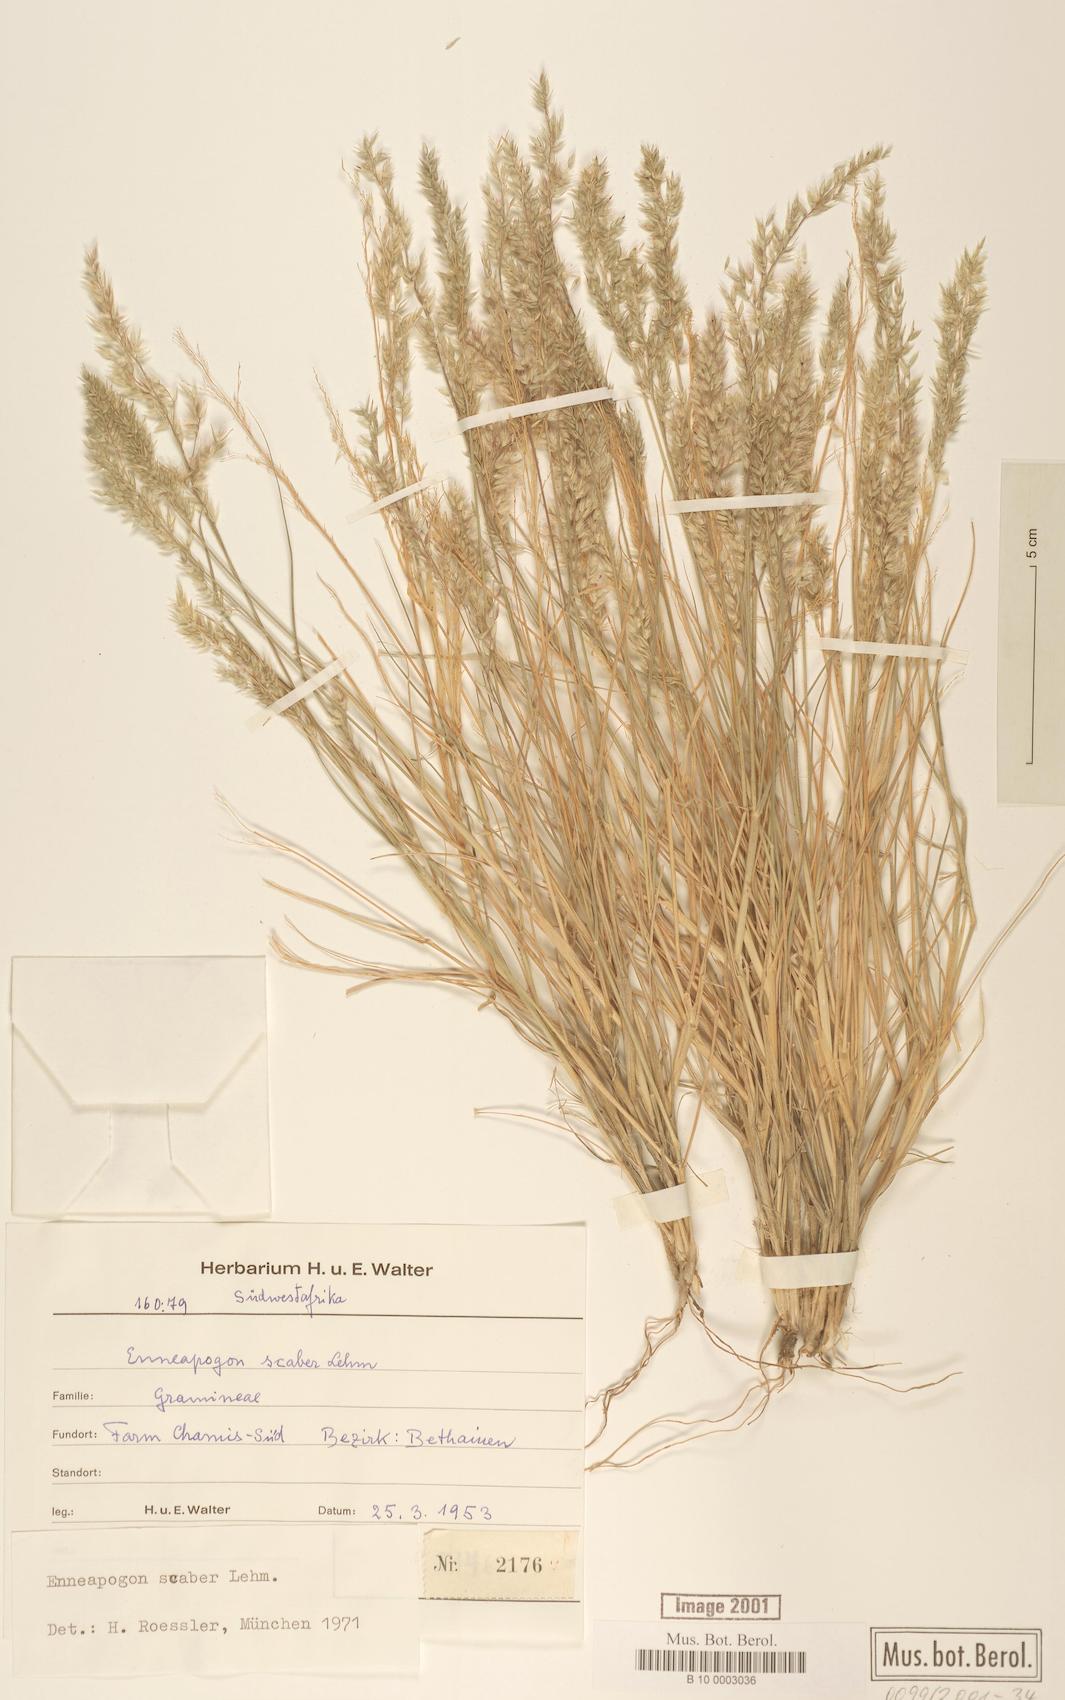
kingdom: Plantae
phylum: Tracheophyta
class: Liliopsida
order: Poales
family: Poaceae
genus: Enneapogon
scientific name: Enneapogon scaber
